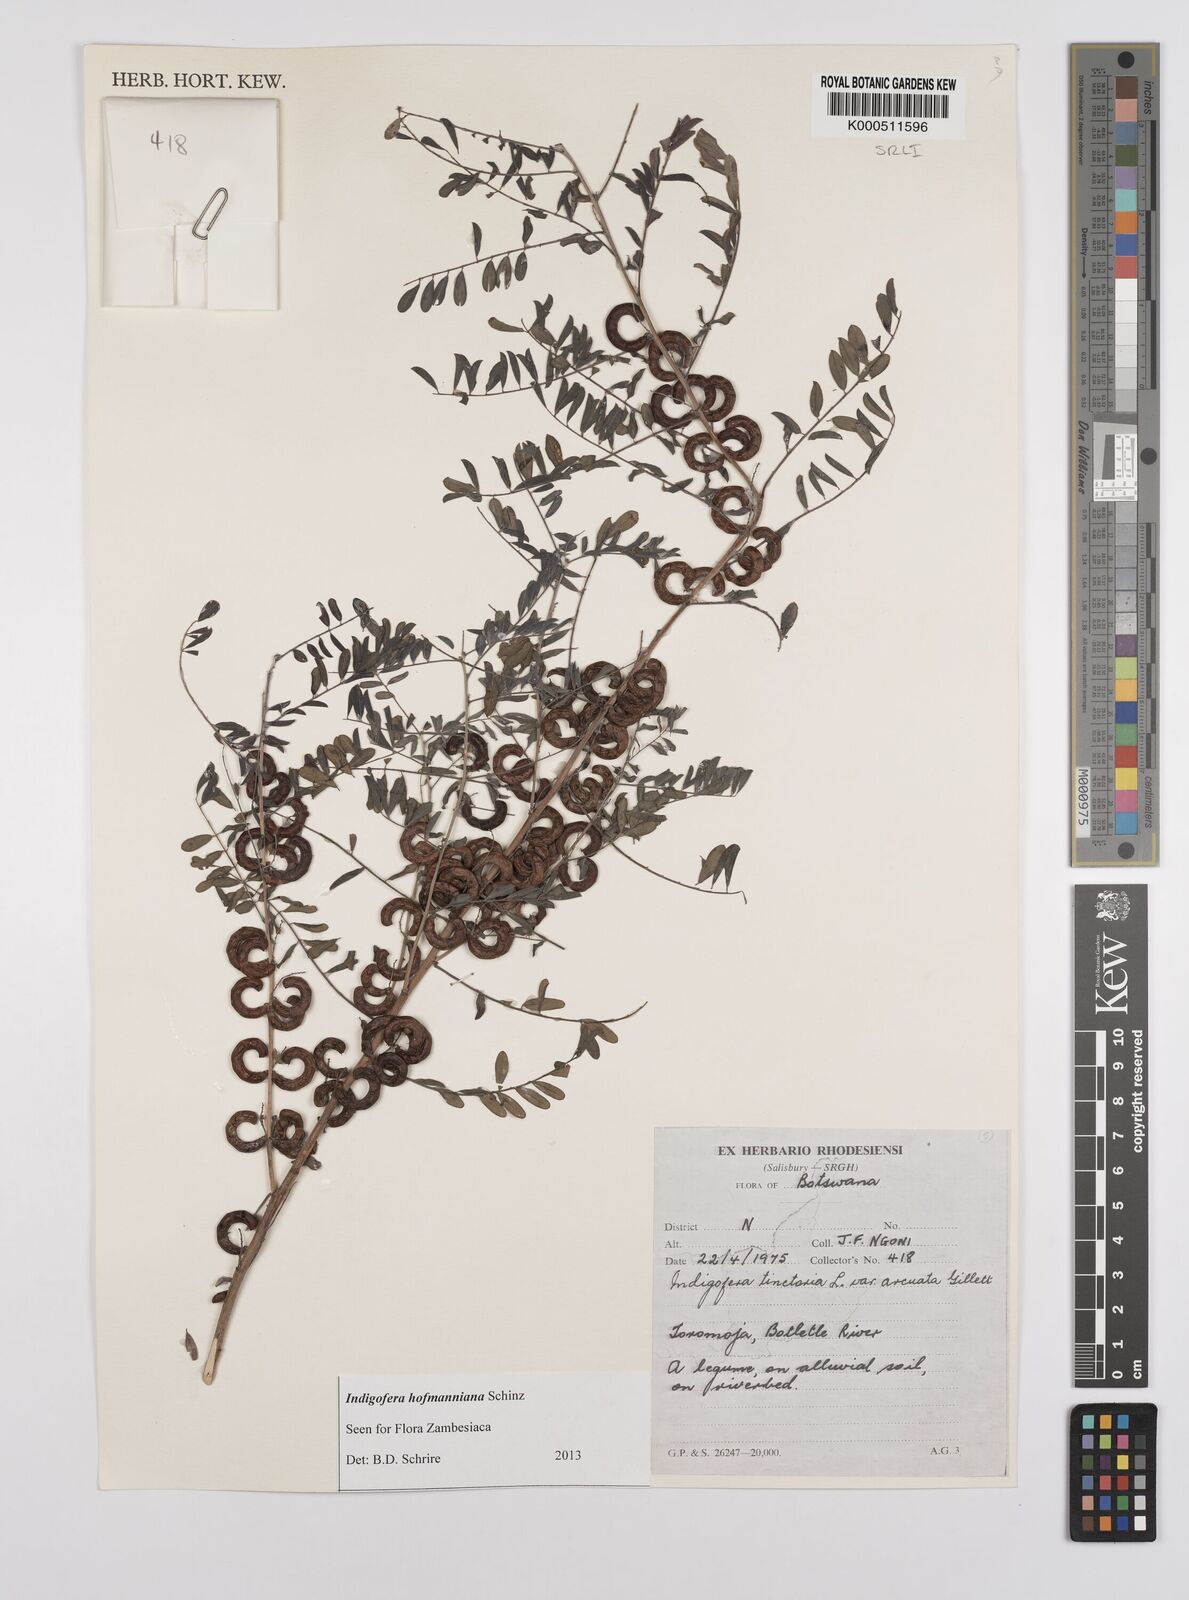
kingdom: Plantae
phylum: Tracheophyta
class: Magnoliopsida
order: Fabales
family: Fabaceae
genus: Indigofera
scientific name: Indigofera hofmanniana
